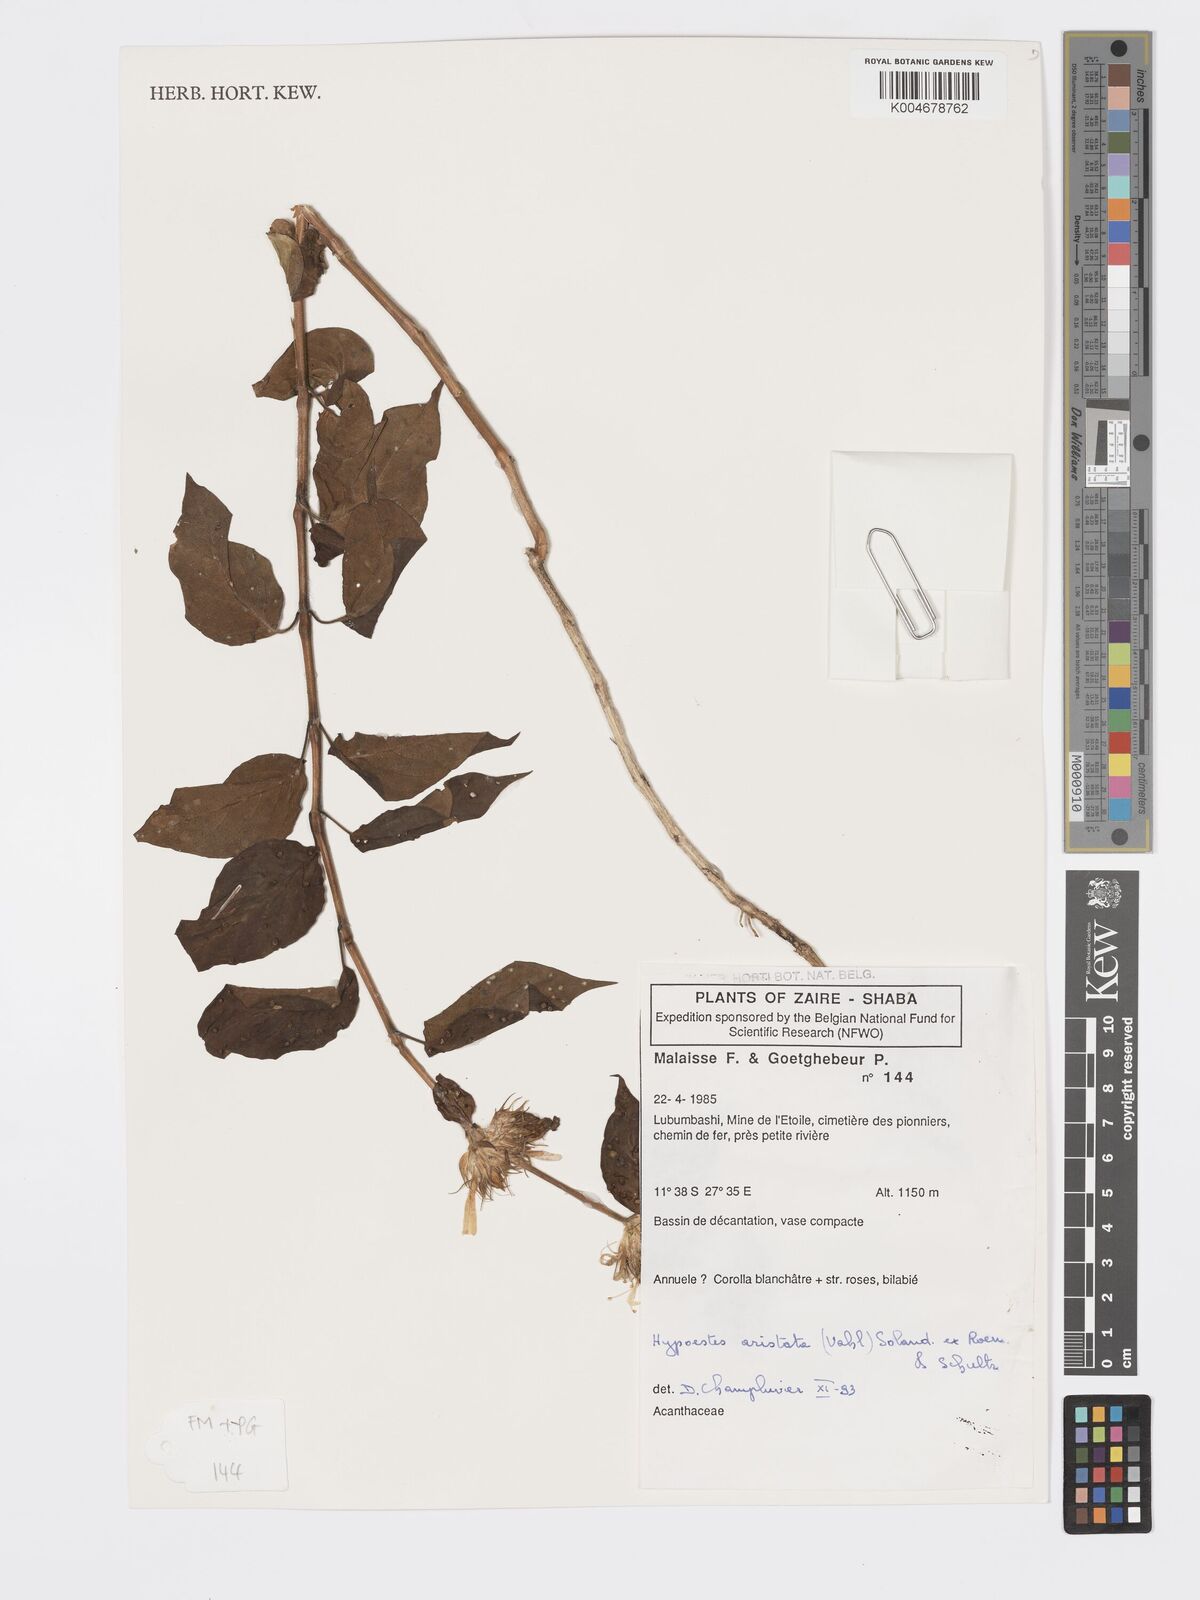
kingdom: Plantae
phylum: Tracheophyta
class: Magnoliopsida
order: Lamiales
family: Acanthaceae
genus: Hypoestes
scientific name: Hypoestes aristata
